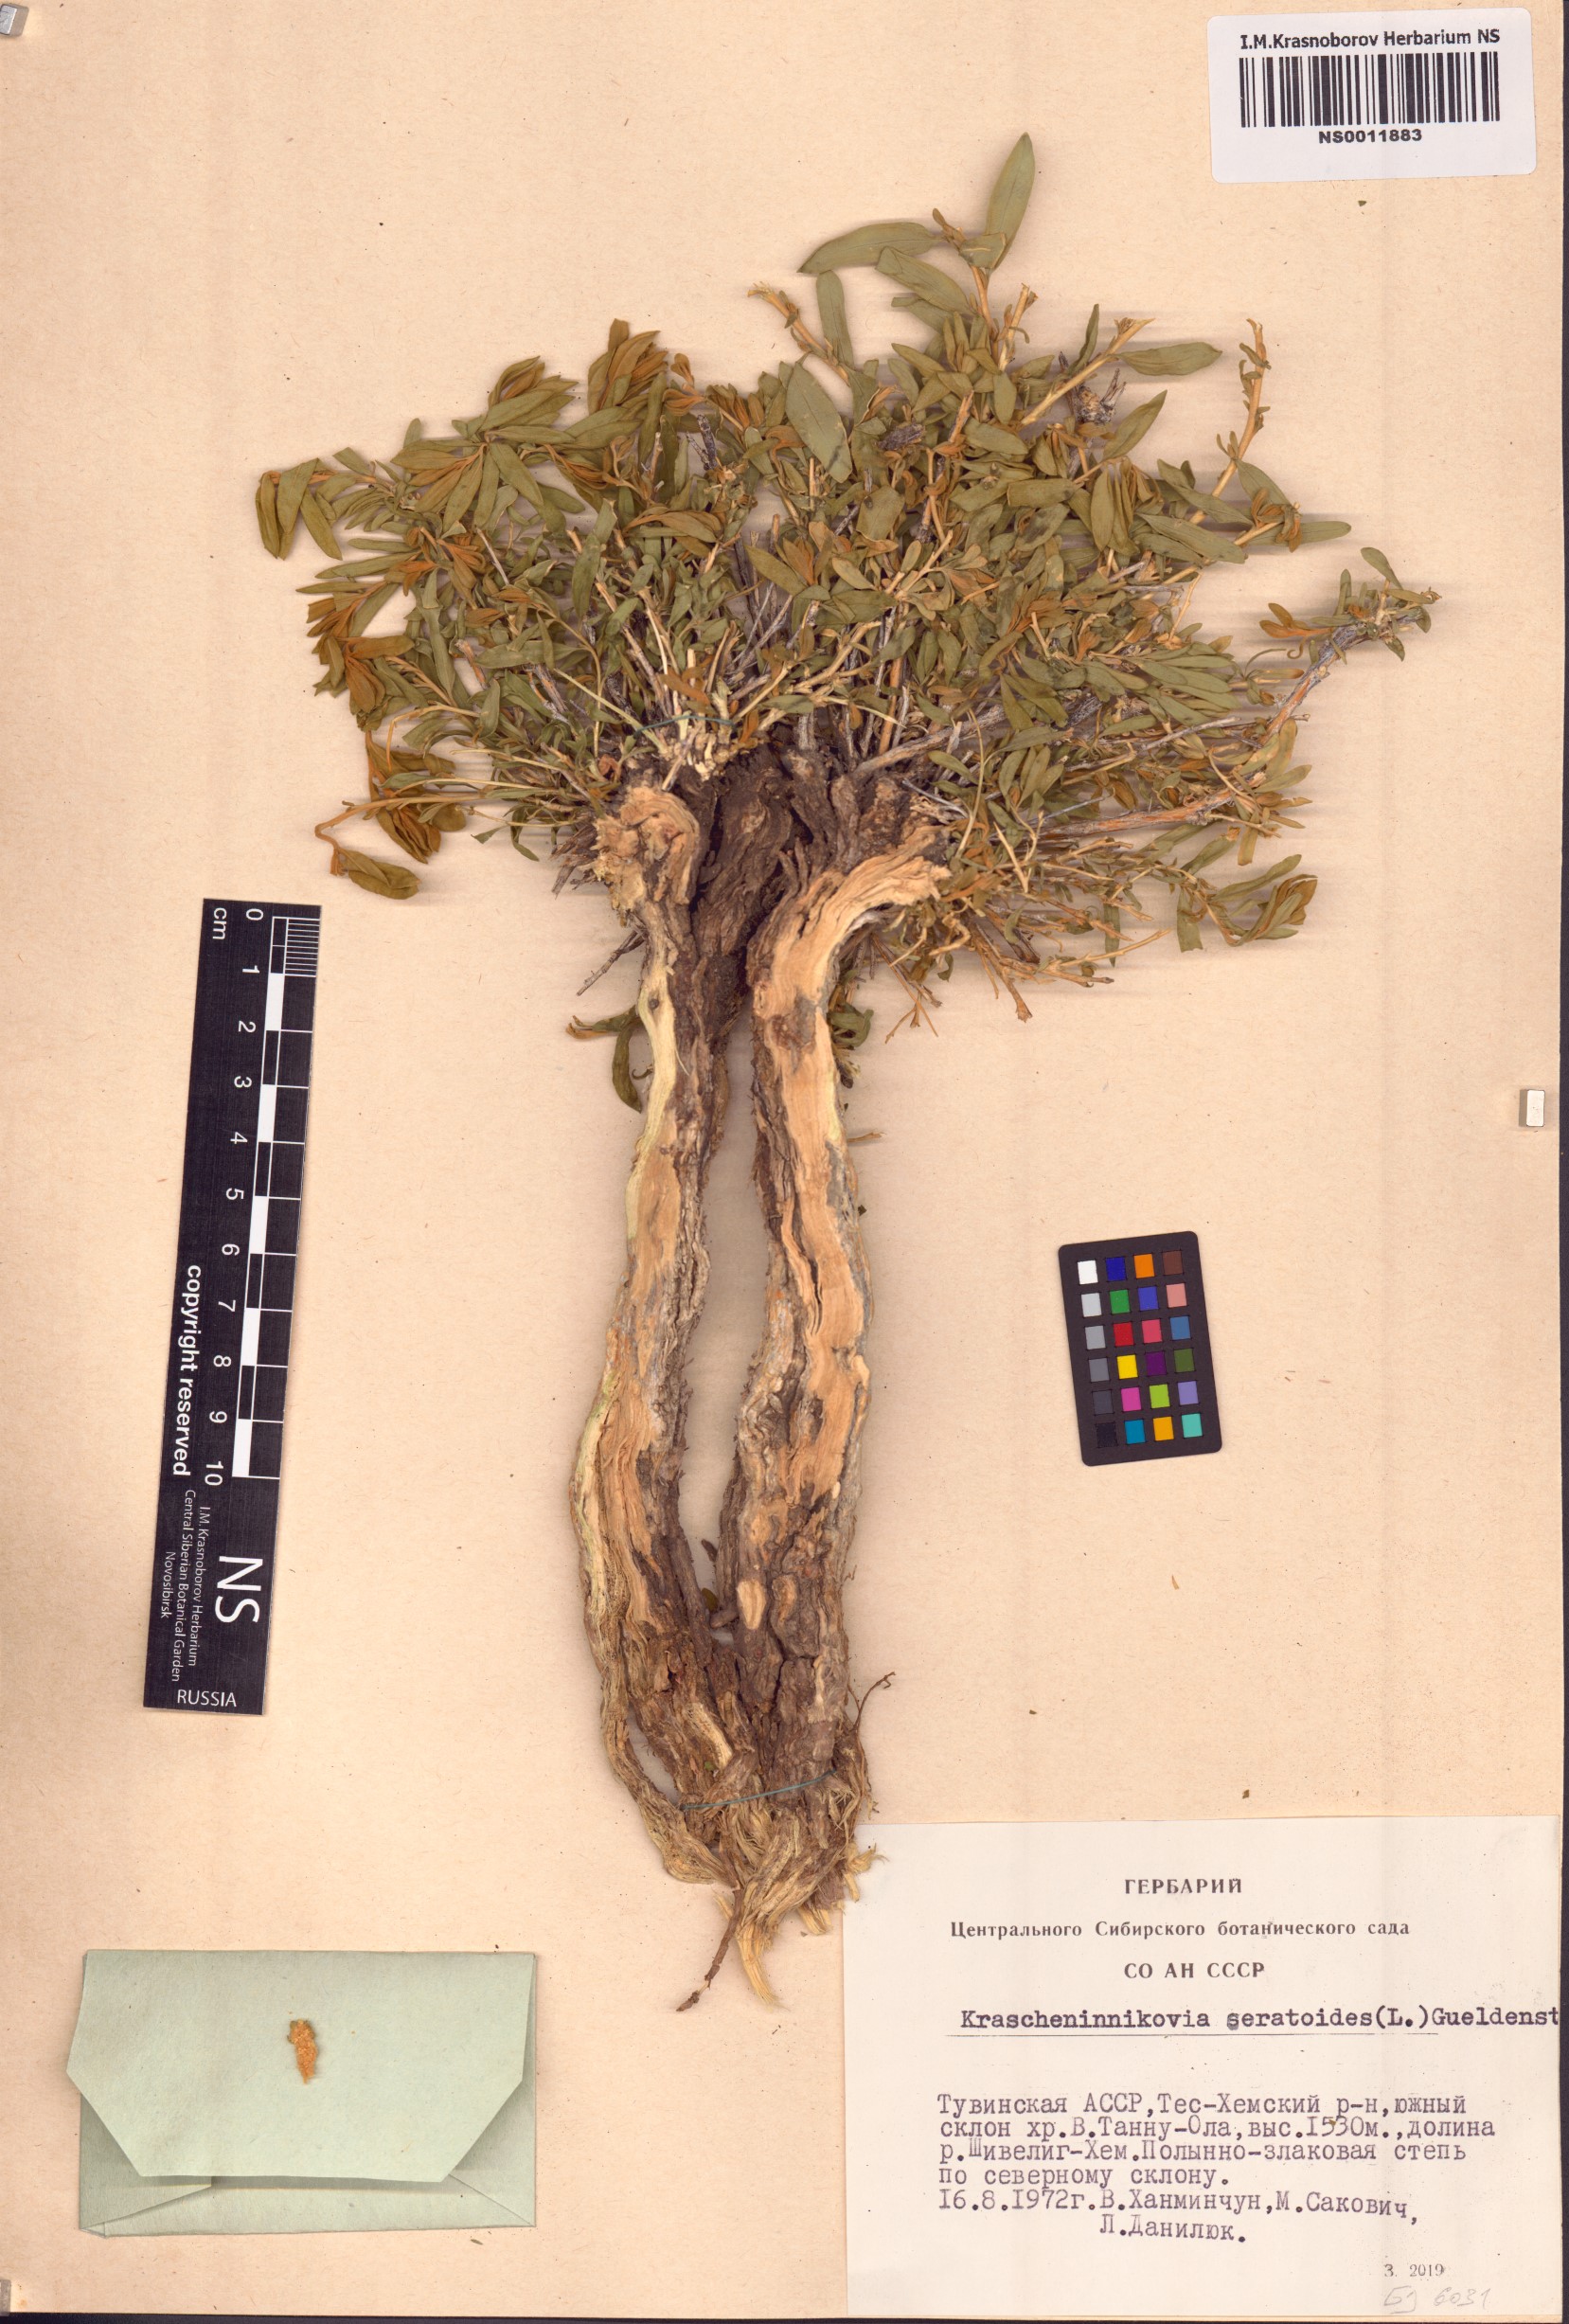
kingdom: Plantae
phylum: Tracheophyta
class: Magnoliopsida
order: Caryophyllales
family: Amaranthaceae
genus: Krascheninnikovia
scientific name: Krascheninnikovia ceratoides
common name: Pamirian winterfat
